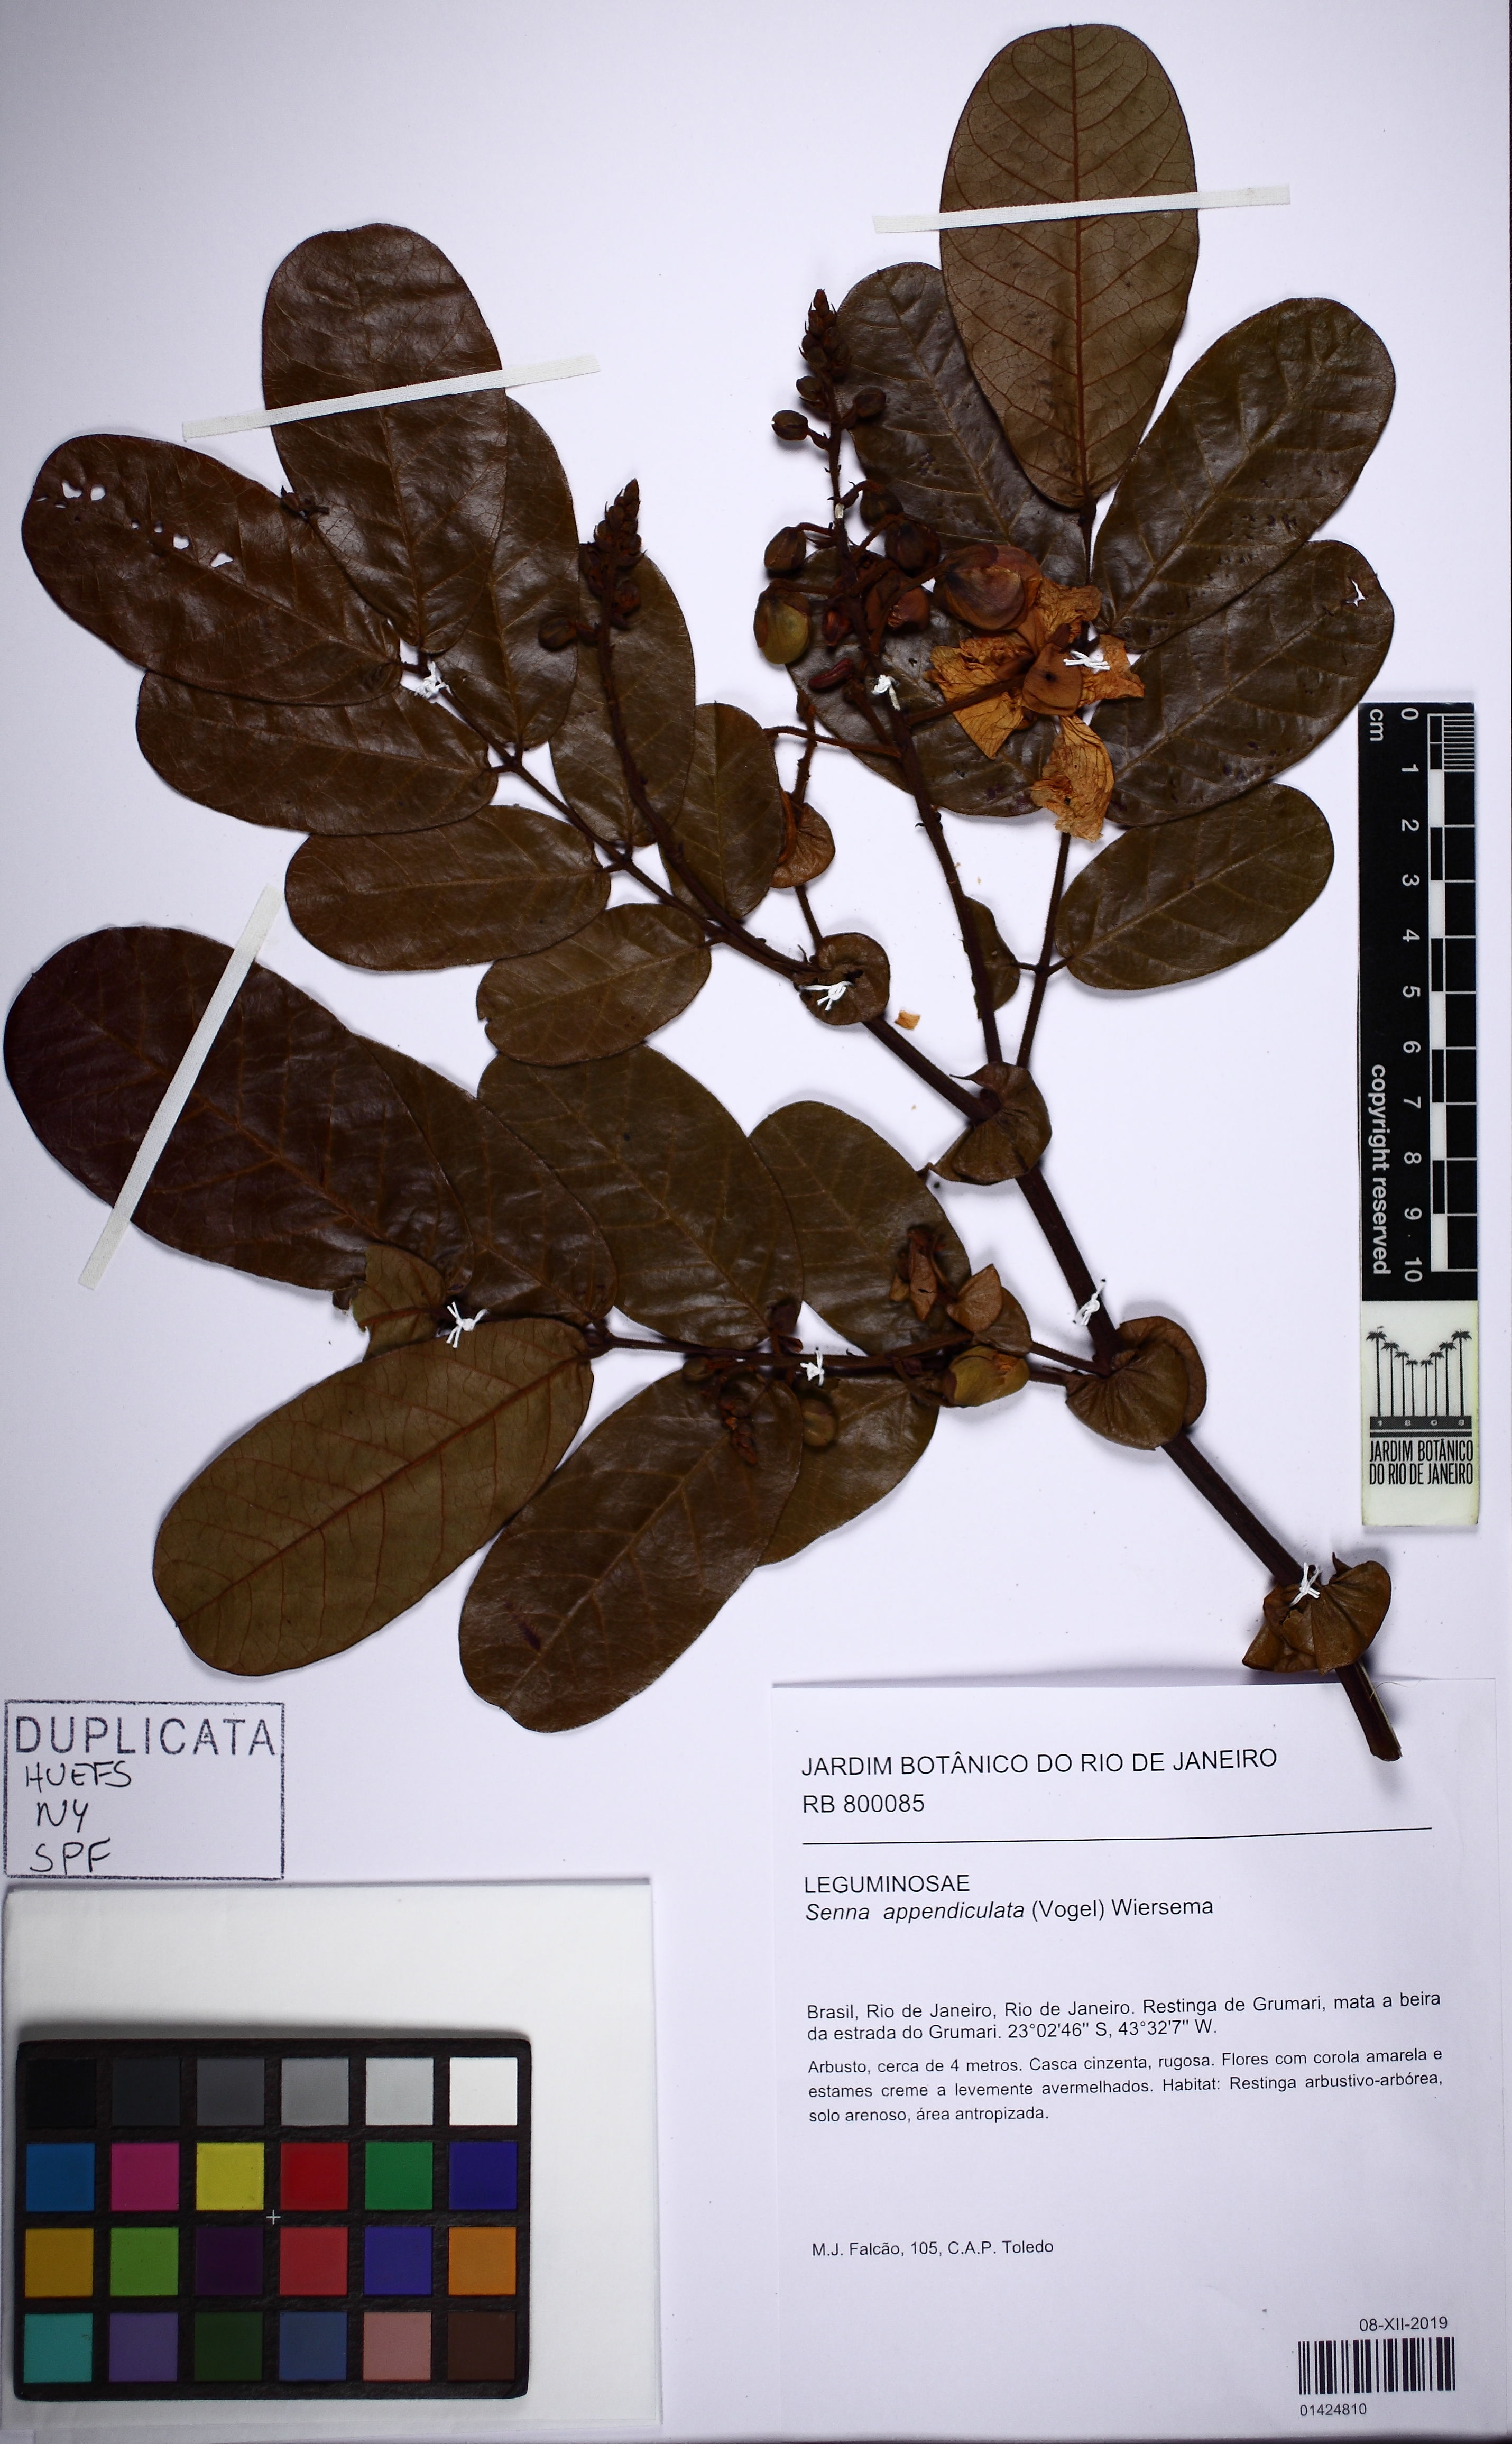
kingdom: Plantae
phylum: Tracheophyta
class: Magnoliopsida
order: Fabales
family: Fabaceae
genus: Senna
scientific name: Senna appendiculata
